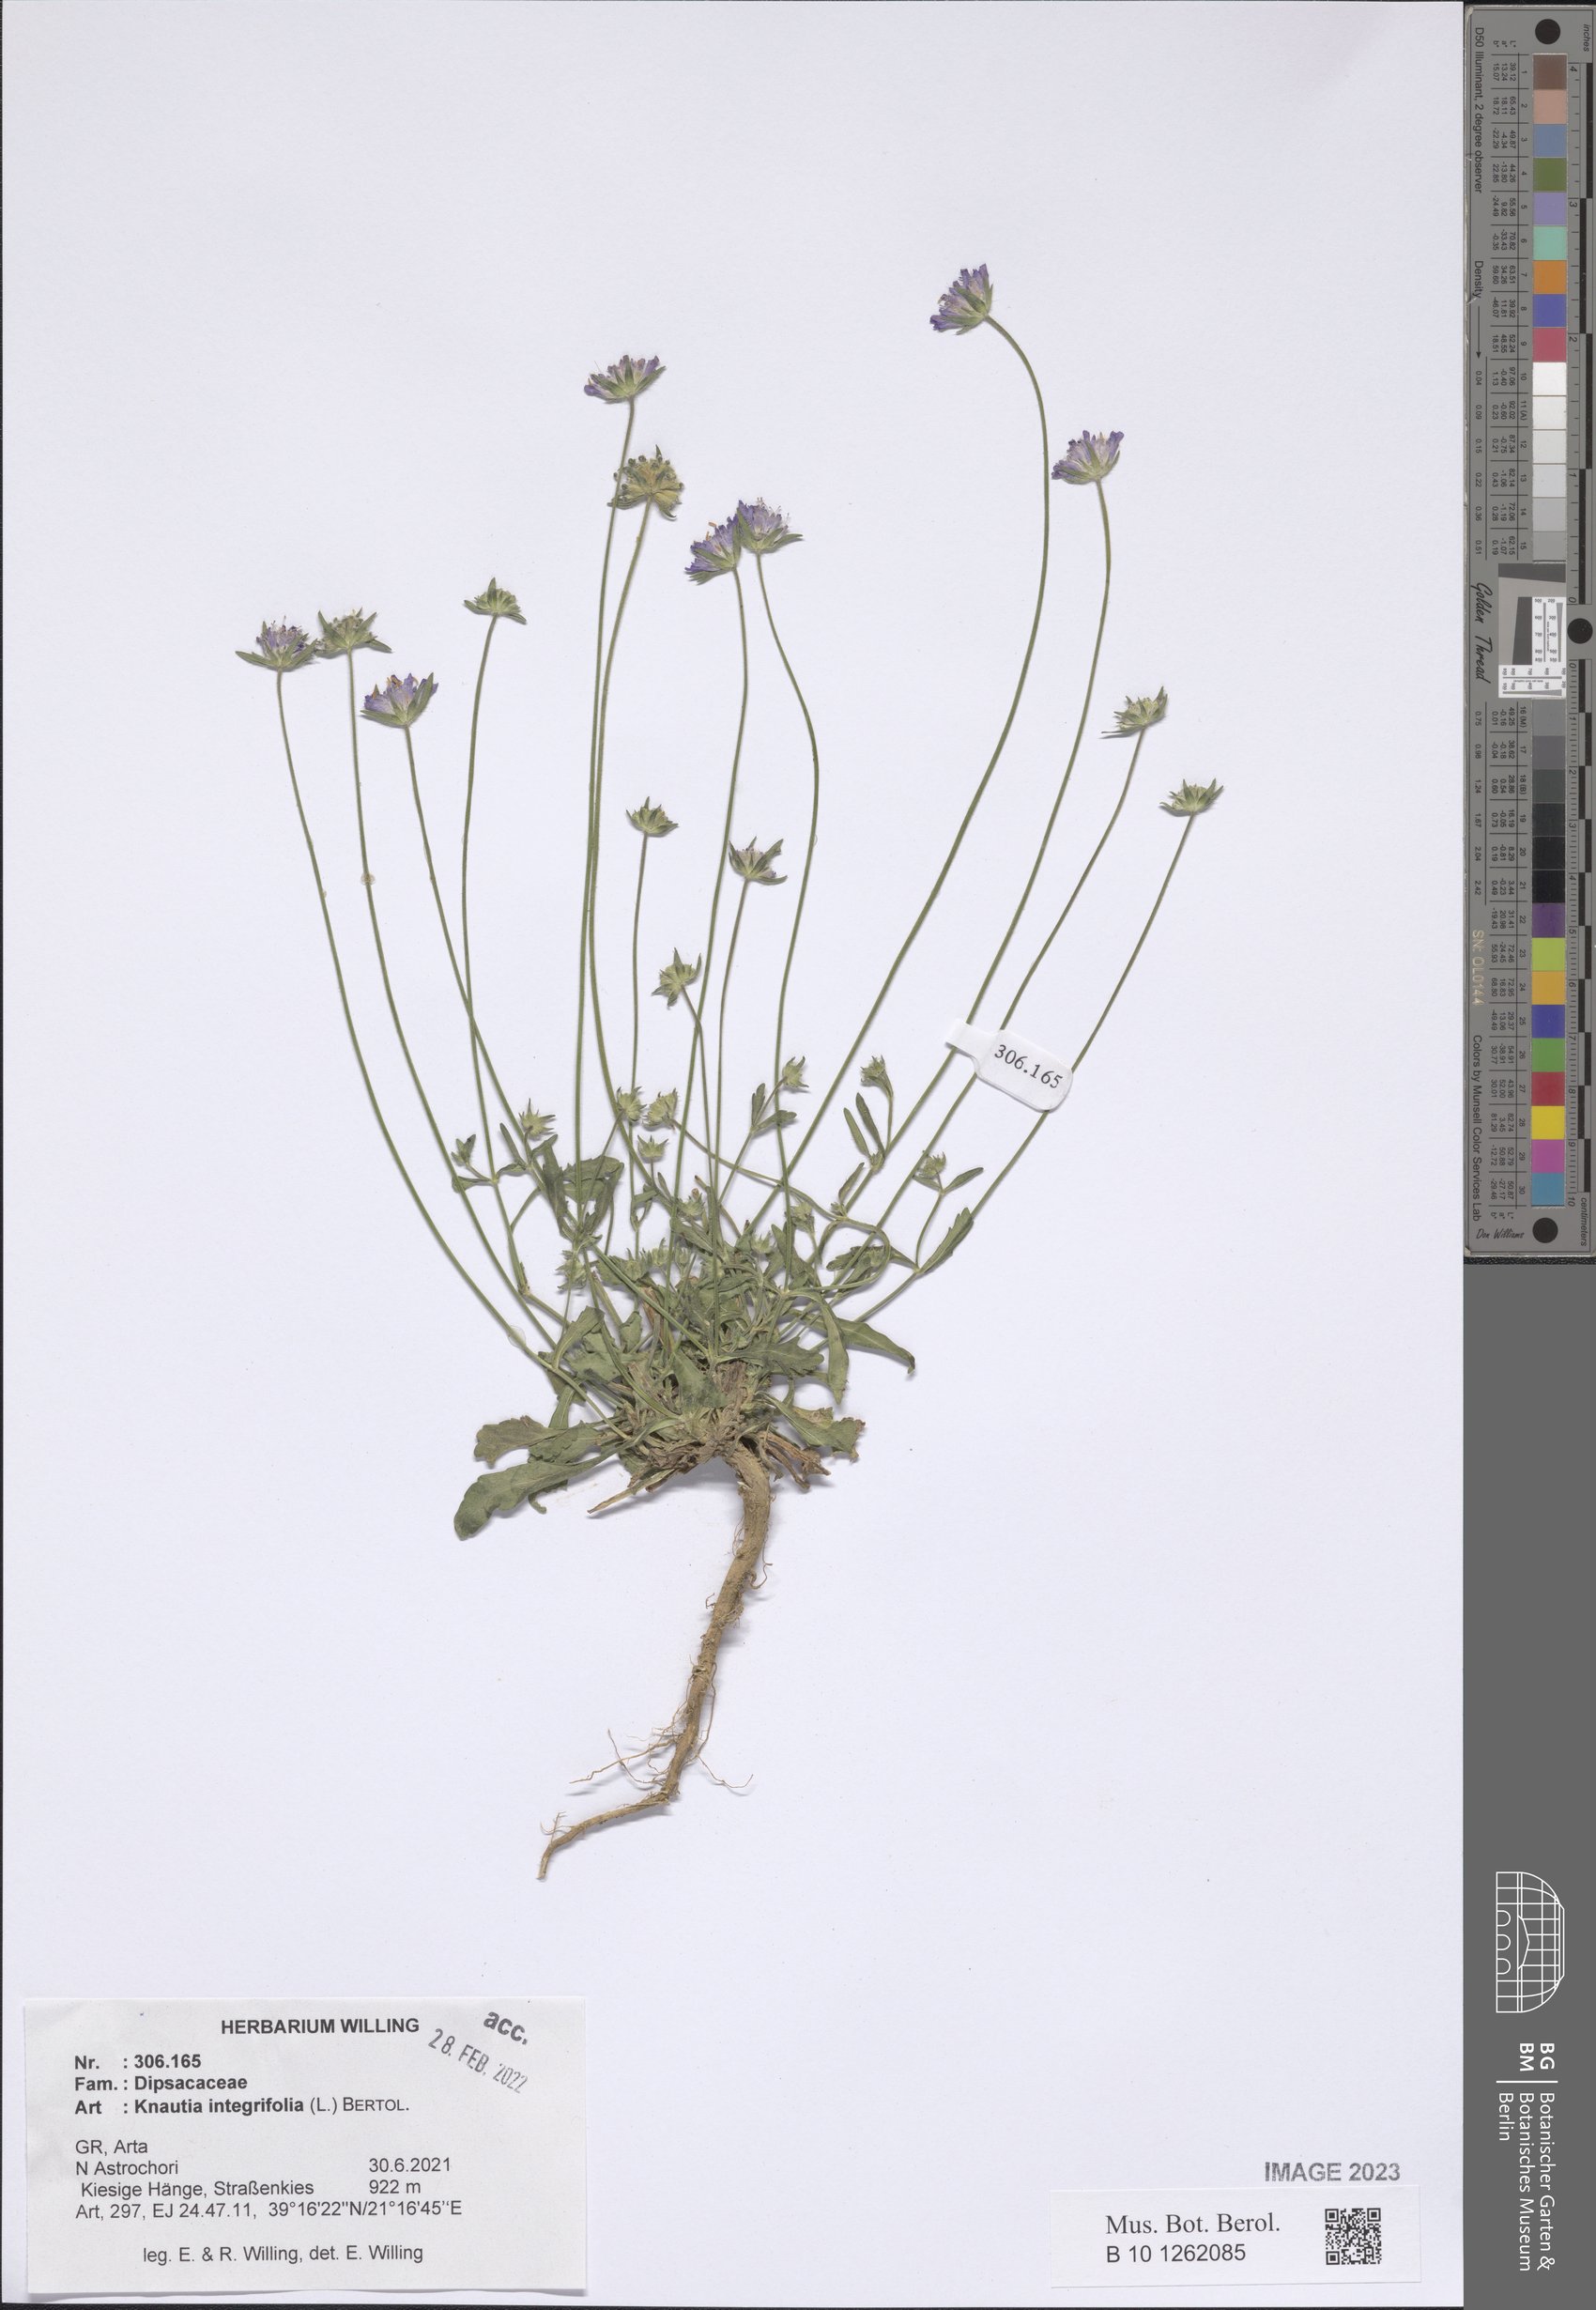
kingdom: Plantae
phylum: Tracheophyta
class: Magnoliopsida
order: Dipsacales
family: Caprifoliaceae
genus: Knautia
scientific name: Knautia integrifolia
